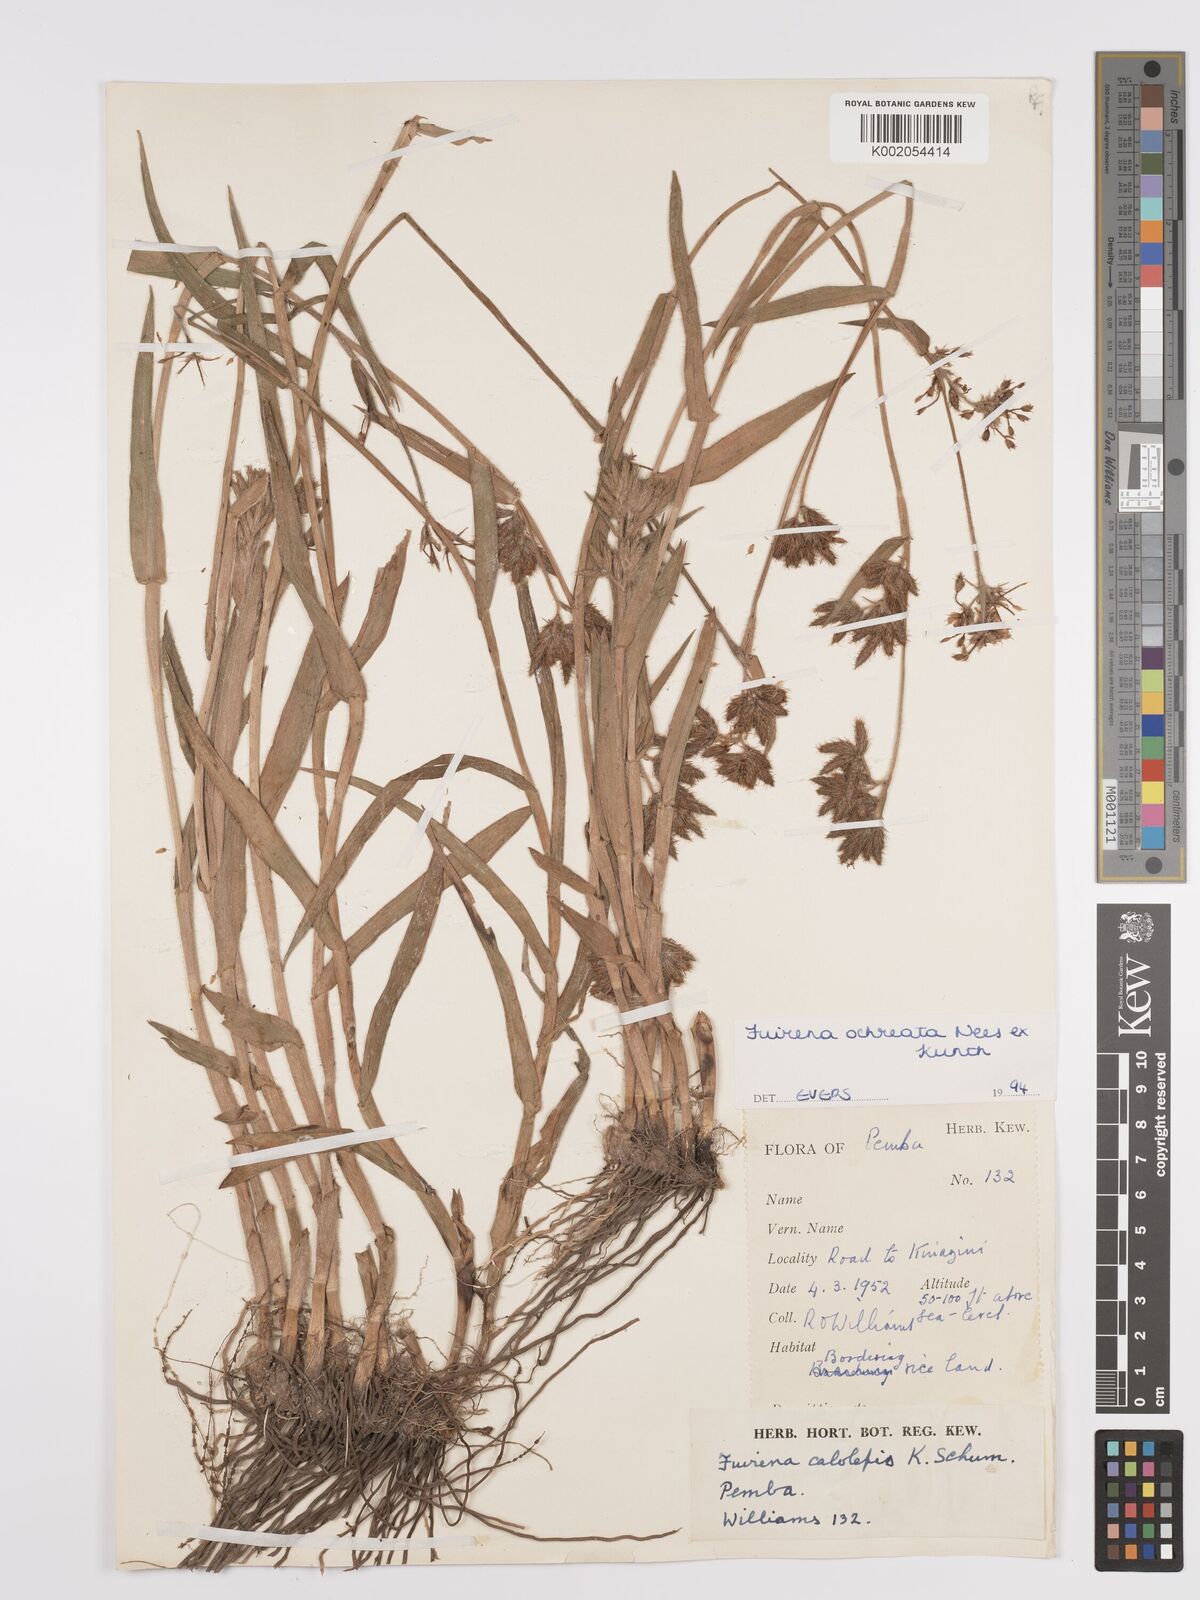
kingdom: Plantae
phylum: Tracheophyta
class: Liliopsida
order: Poales
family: Cyperaceae
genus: Fuirena
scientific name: Fuirena ochreata
